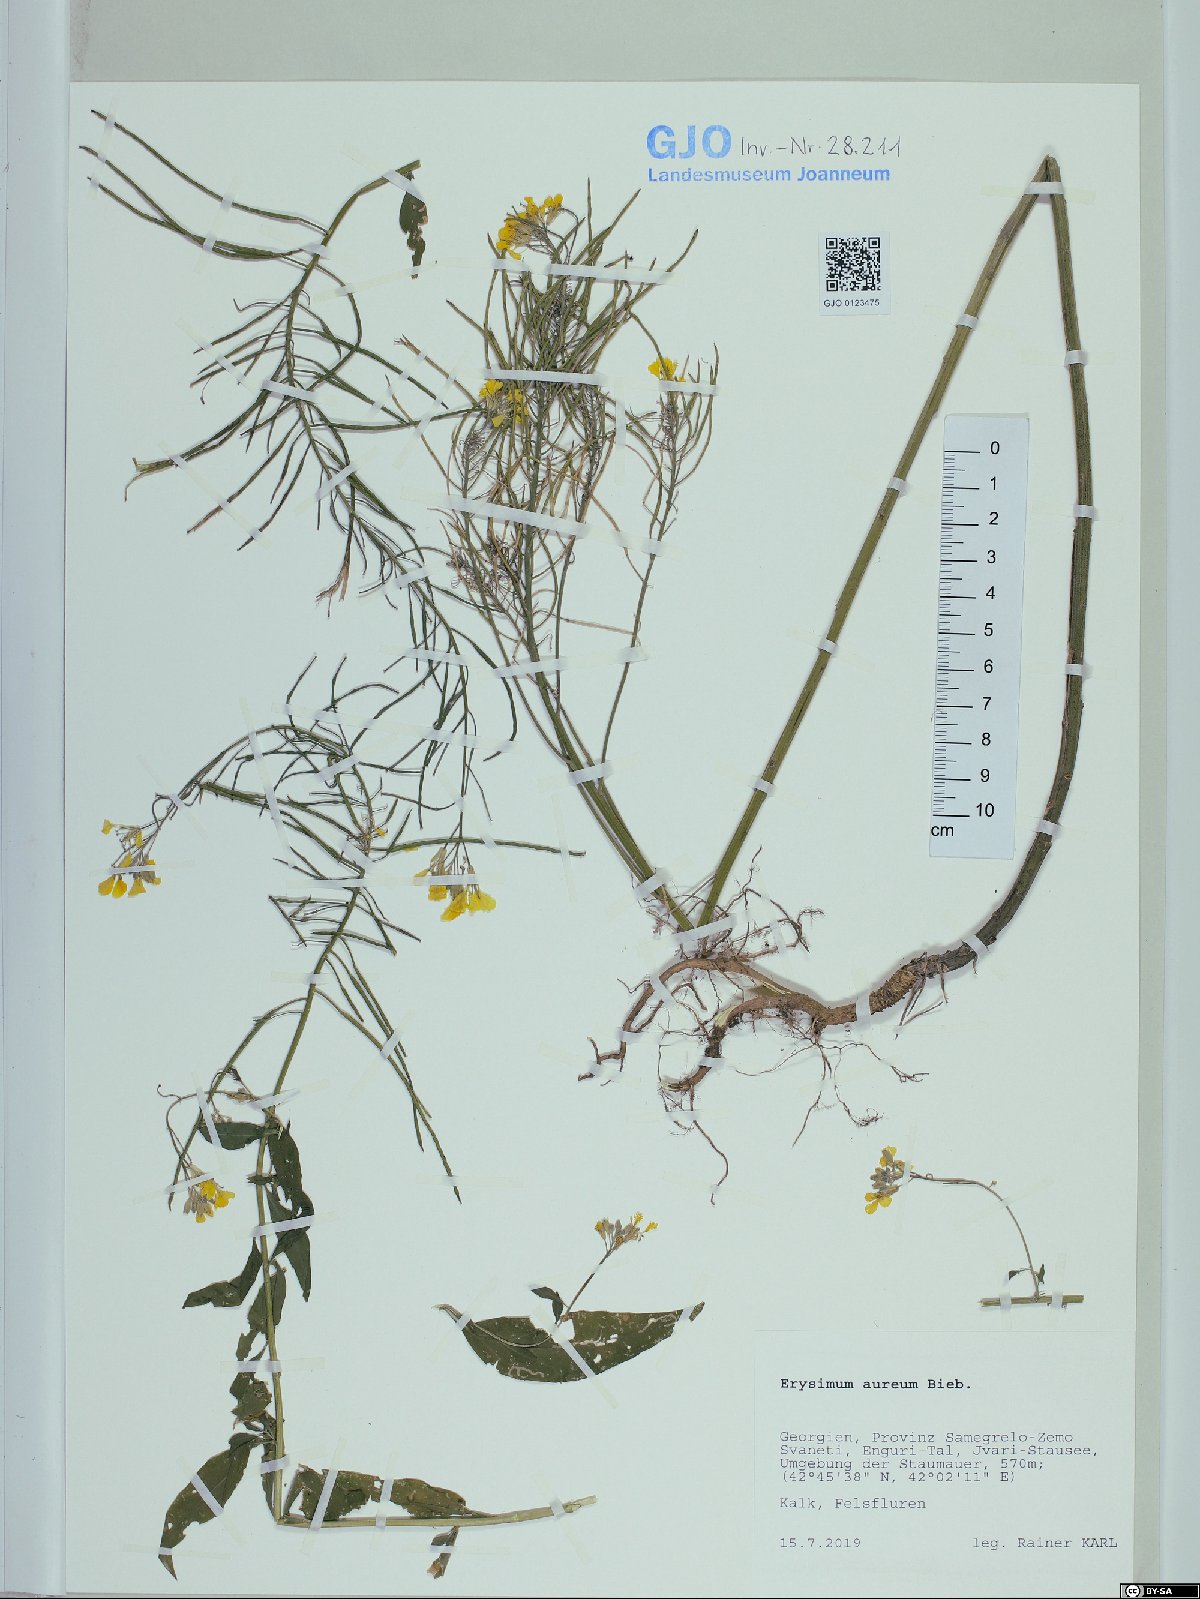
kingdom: Plantae
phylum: Tracheophyta
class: Magnoliopsida
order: Brassicales
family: Brassicaceae
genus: Erysimum
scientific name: Erysimum aureum
